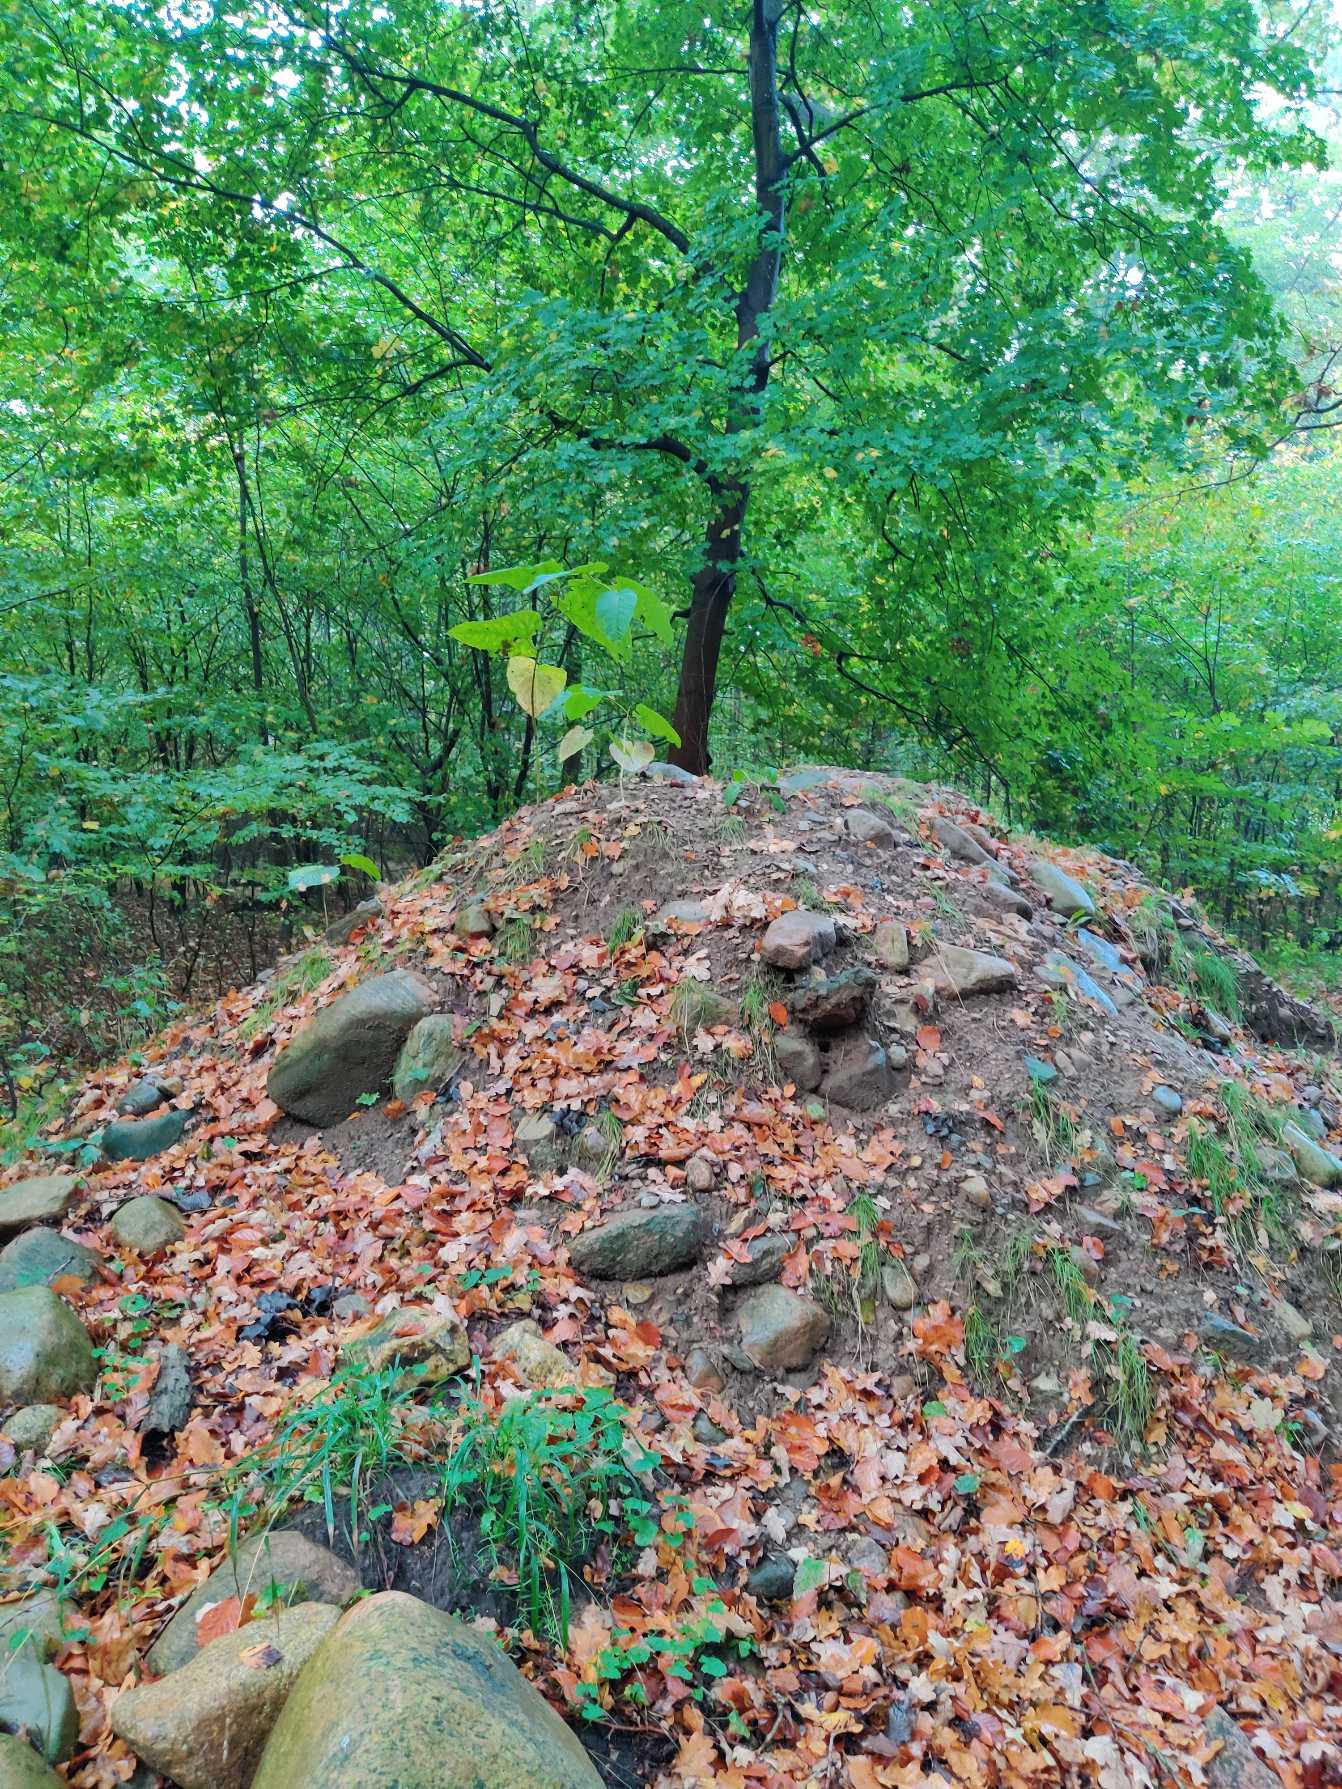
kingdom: Plantae
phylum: Tracheophyta
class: Magnoliopsida
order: Caryophyllales
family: Polygonaceae
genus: Reynoutria
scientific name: Reynoutria sachalinensis
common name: Kæmpe-pileurt
